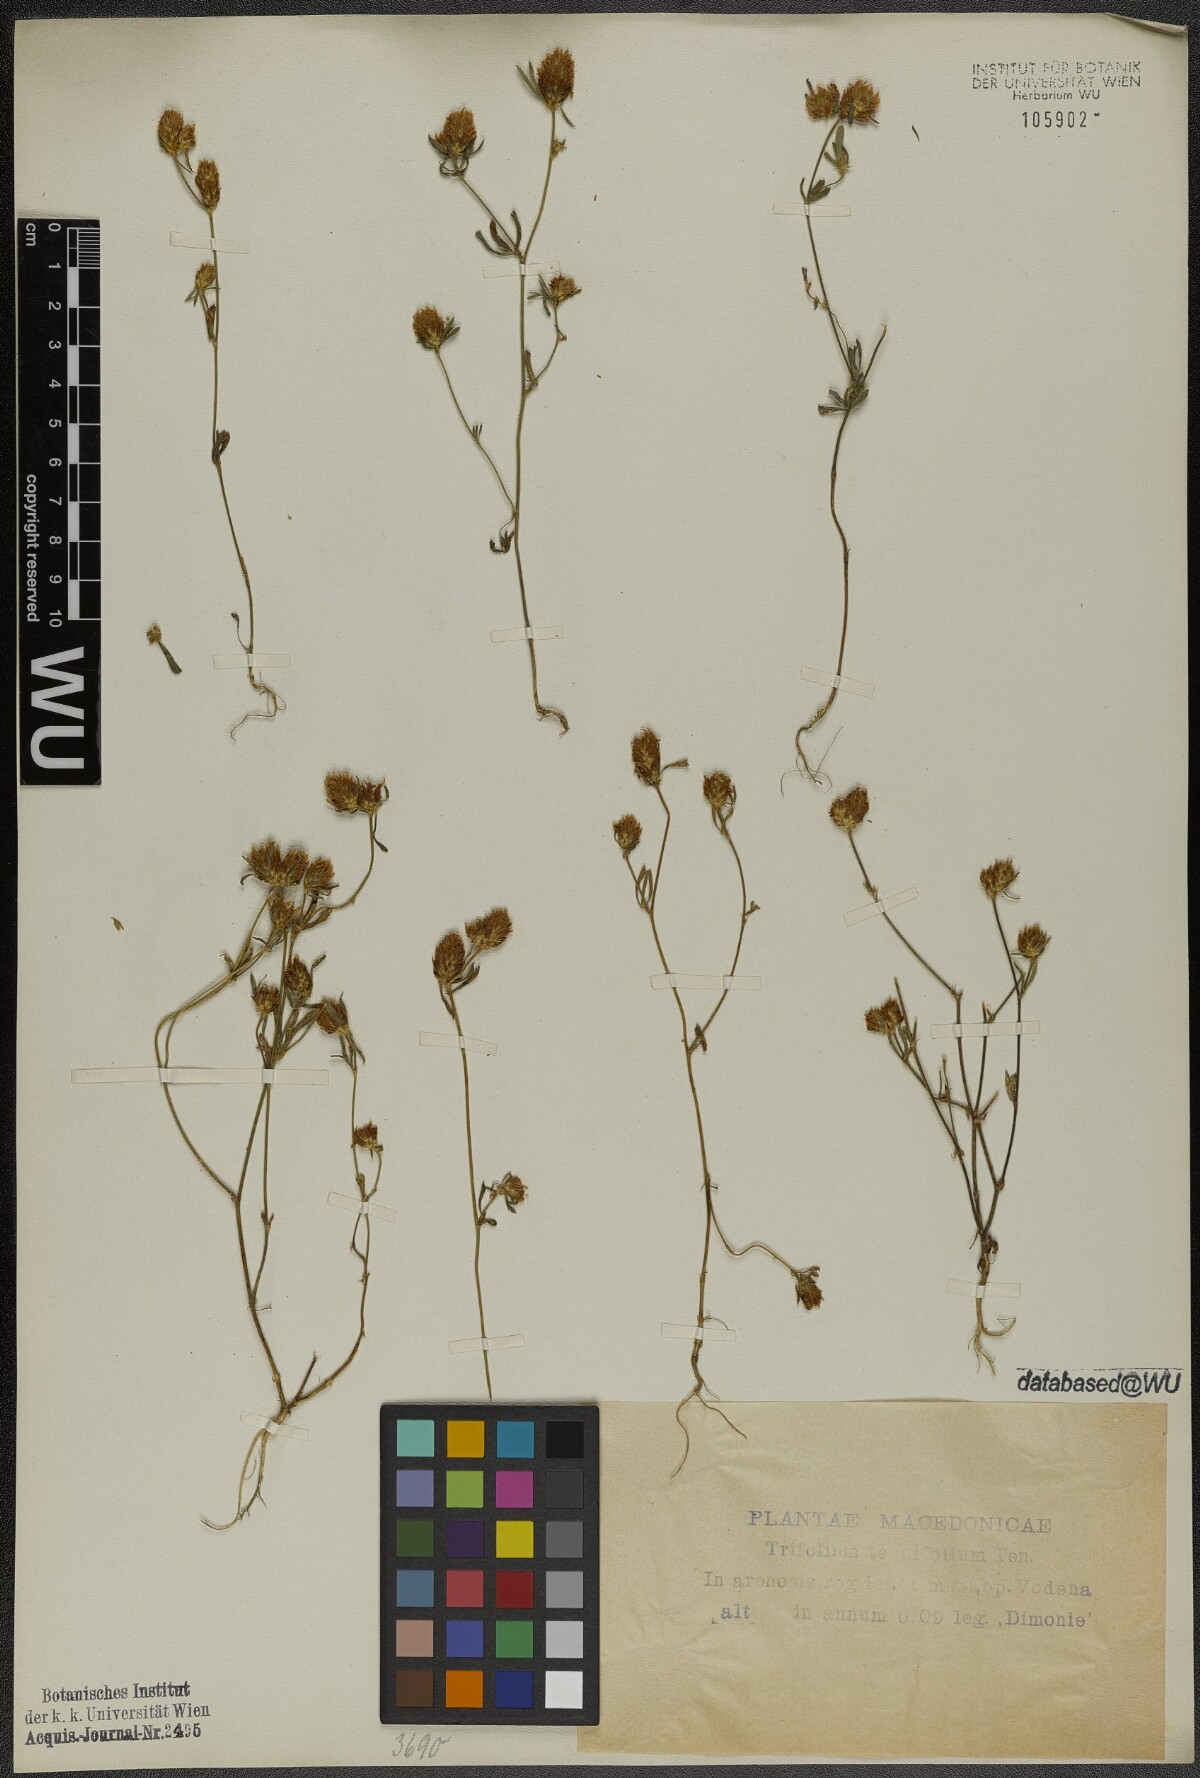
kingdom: Plantae
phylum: Tracheophyta
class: Magnoliopsida
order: Fabales
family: Fabaceae
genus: Trifolium
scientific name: Trifolium tenuifolium
